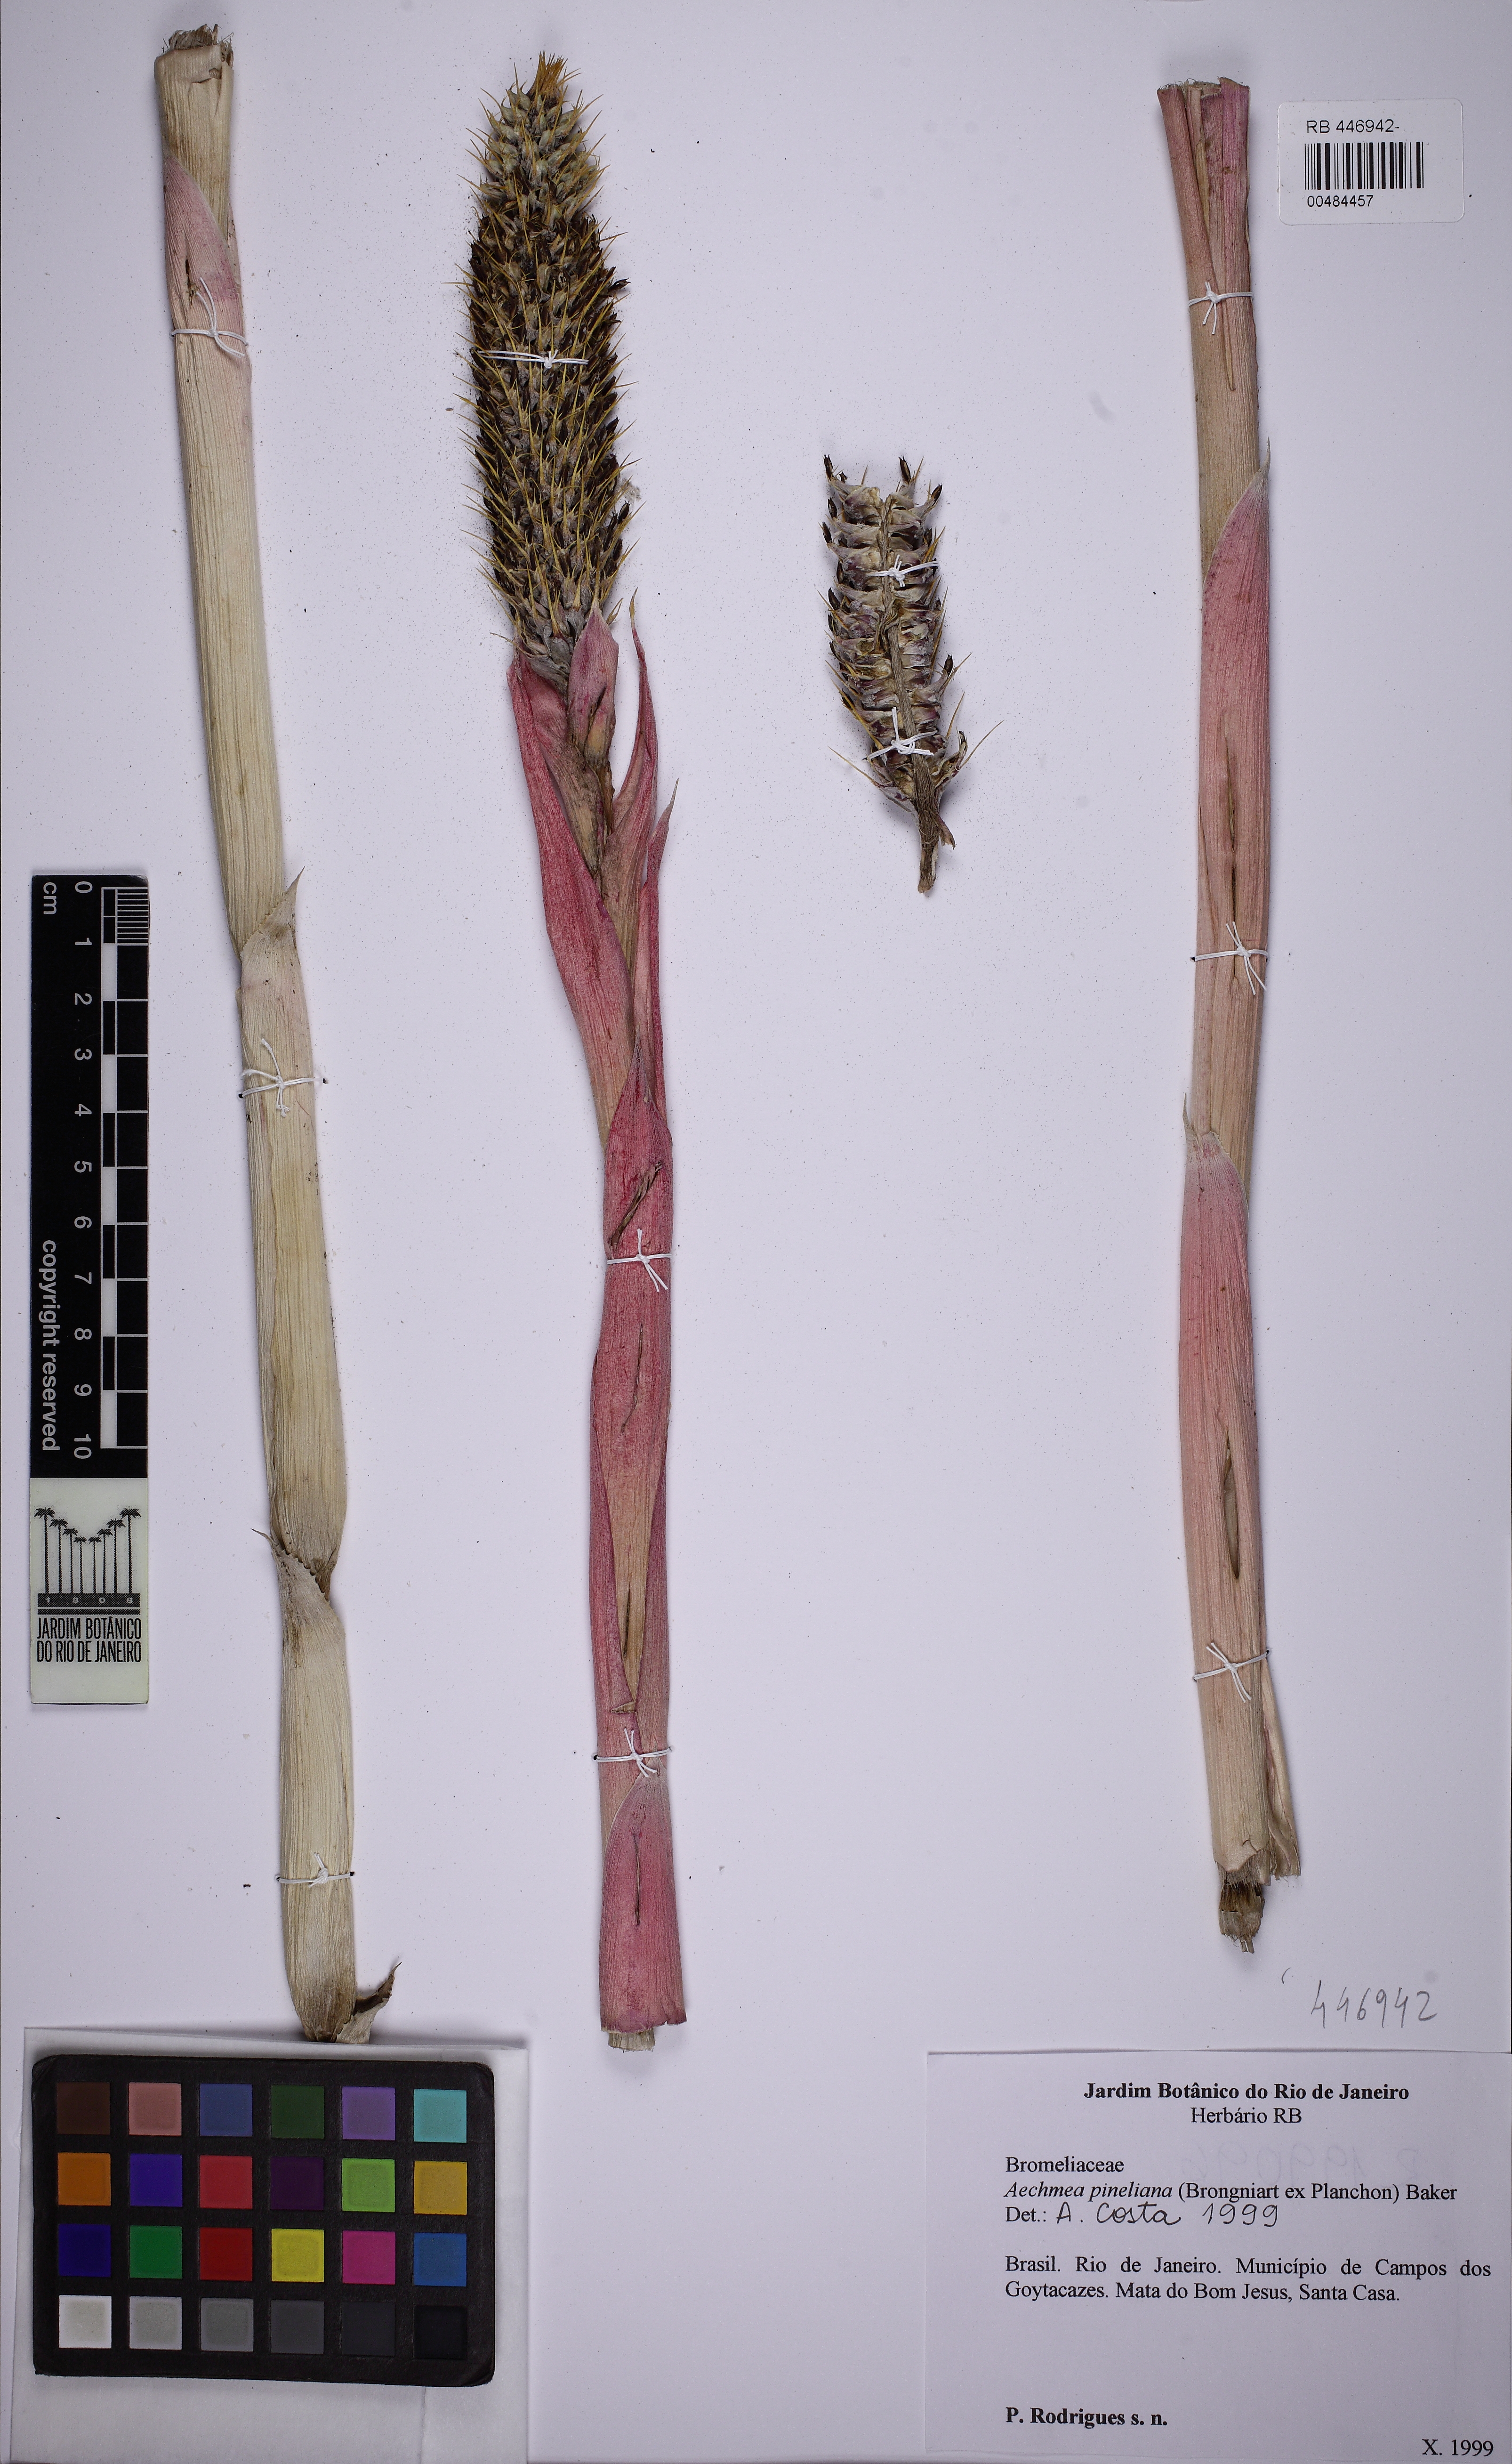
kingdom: Plantae
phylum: Tracheophyta
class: Liliopsida
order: Poales
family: Bromeliaceae
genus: Aechmea
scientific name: Aechmea pineliana
